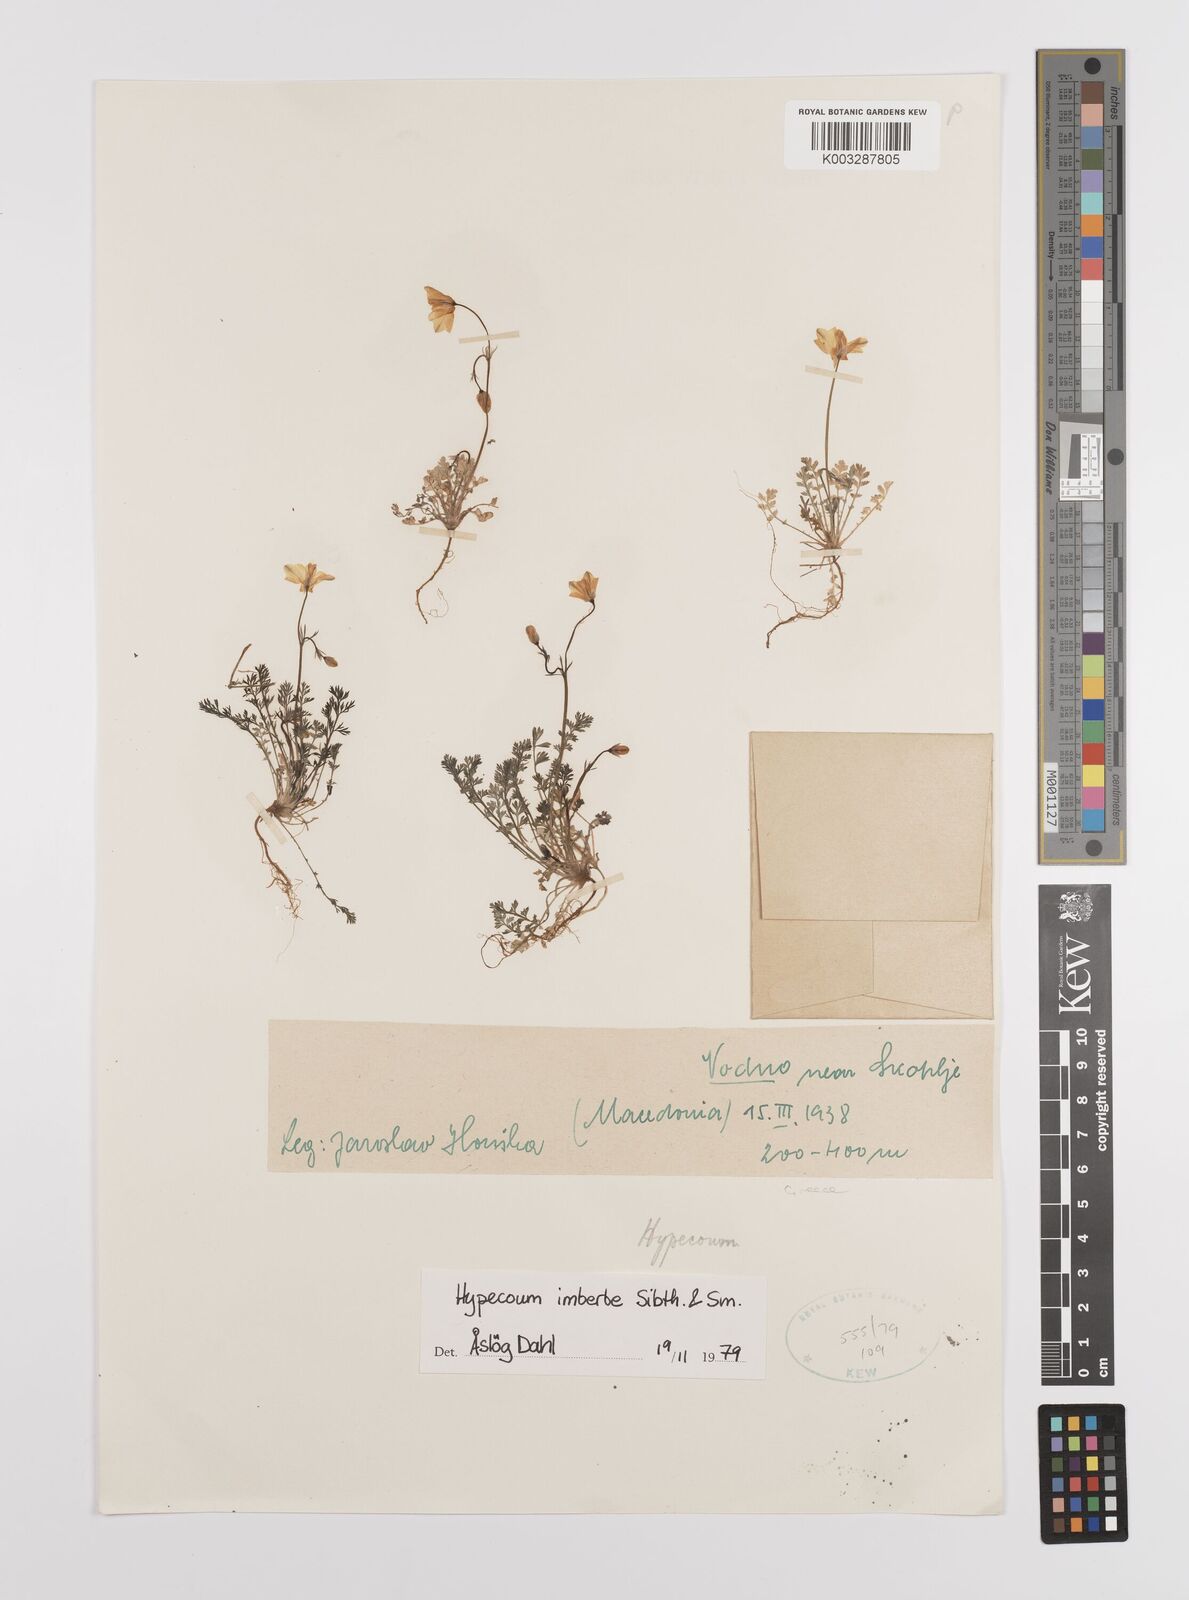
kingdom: Plantae
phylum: Tracheophyta
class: Magnoliopsida
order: Ranunculales
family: Papaveraceae
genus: Hypecoum
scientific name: Hypecoum imberbe
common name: Sicklefruit hypecoum
